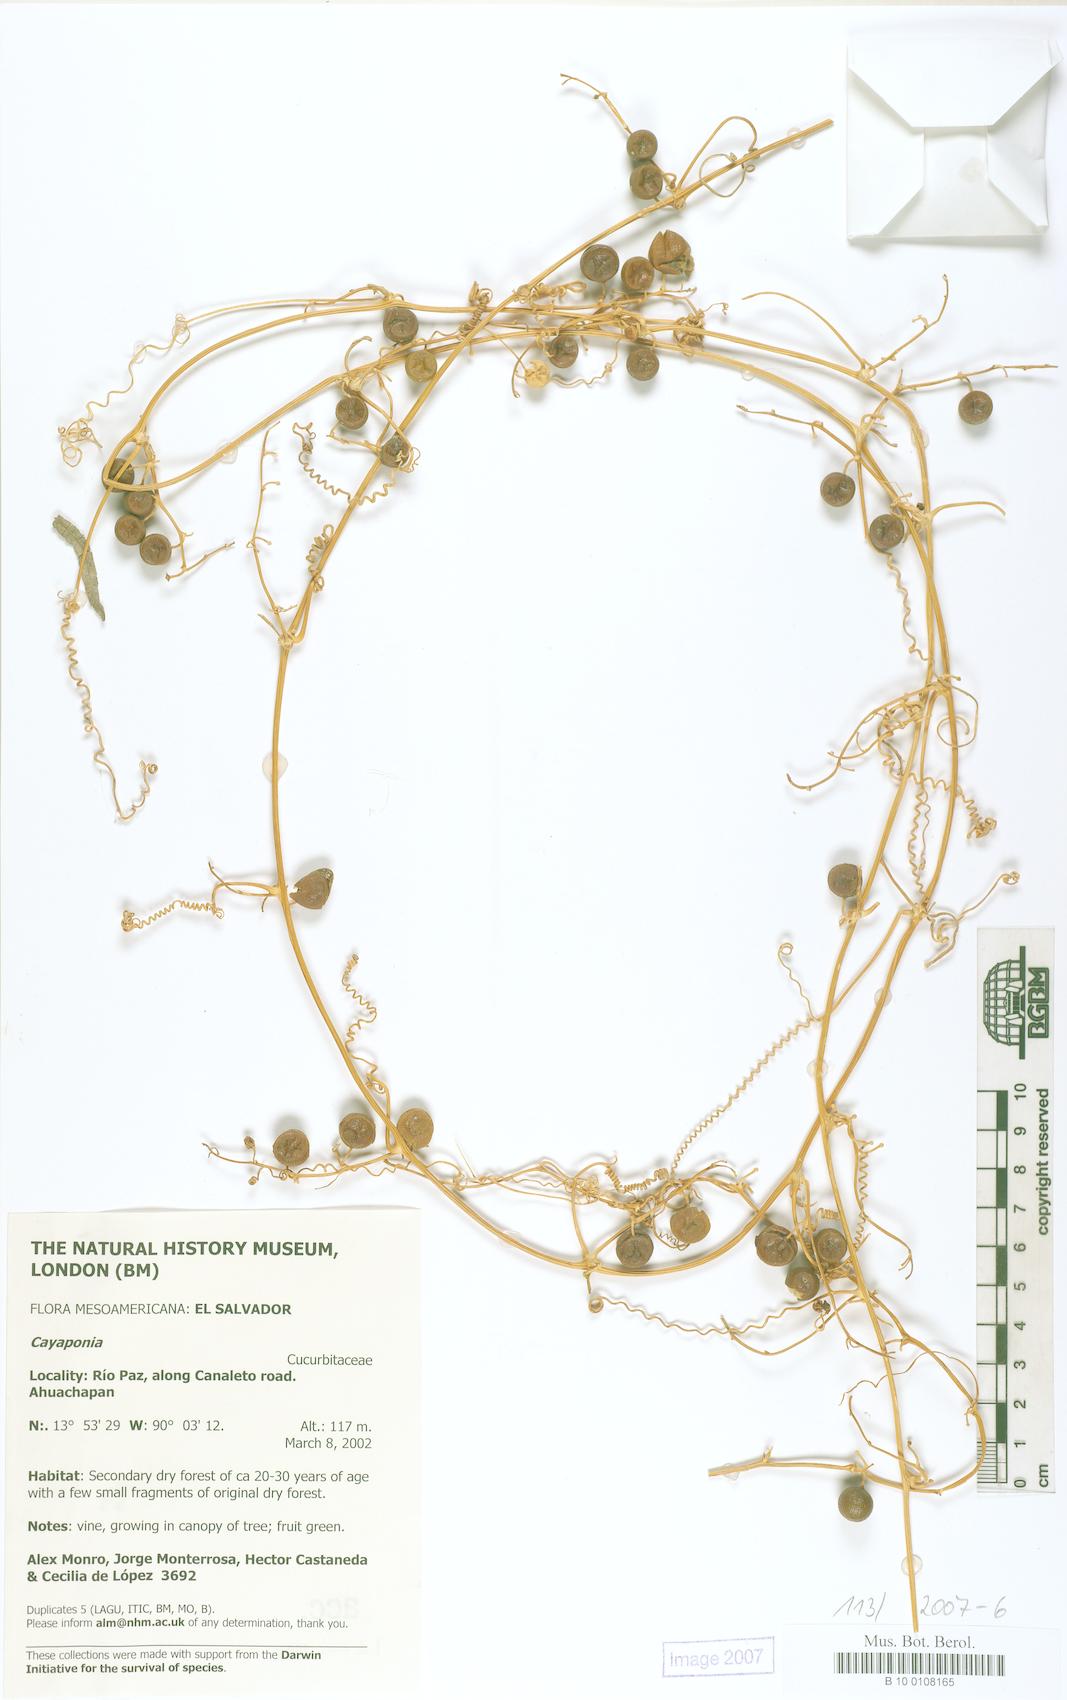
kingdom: Plantae
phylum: Tracheophyta
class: Magnoliopsida
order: Cucurbitales
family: Cucurbitaceae
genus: Cayaponia
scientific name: Cayaponia attenuata
